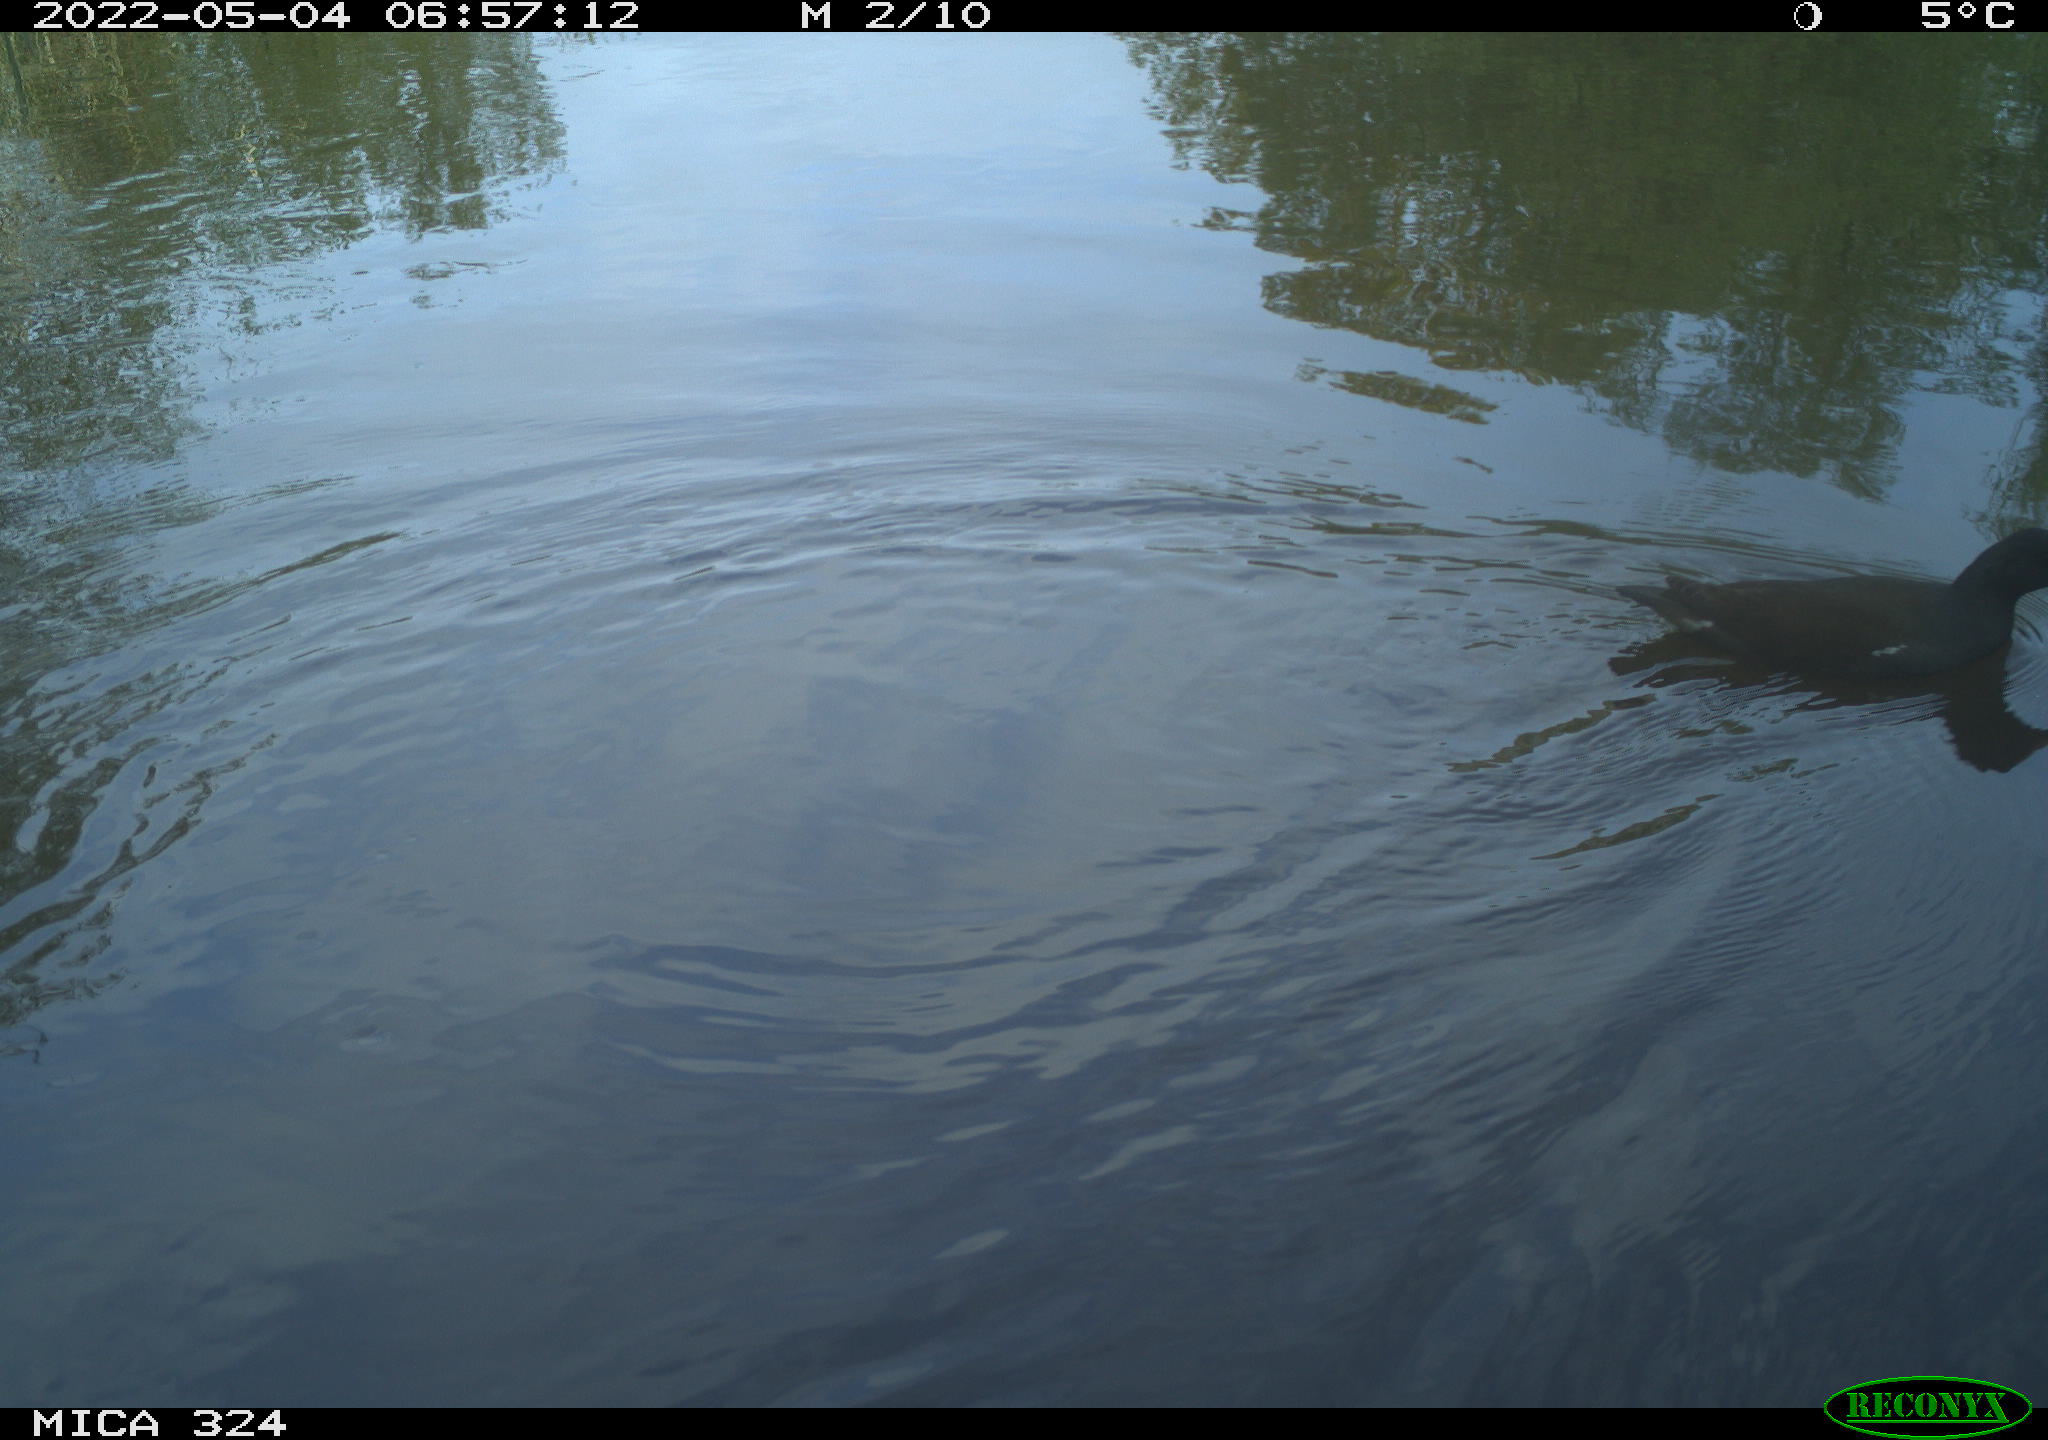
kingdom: Animalia
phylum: Chordata
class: Aves
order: Gruiformes
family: Rallidae
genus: Gallinula
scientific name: Gallinula chloropus
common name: Common moorhen
